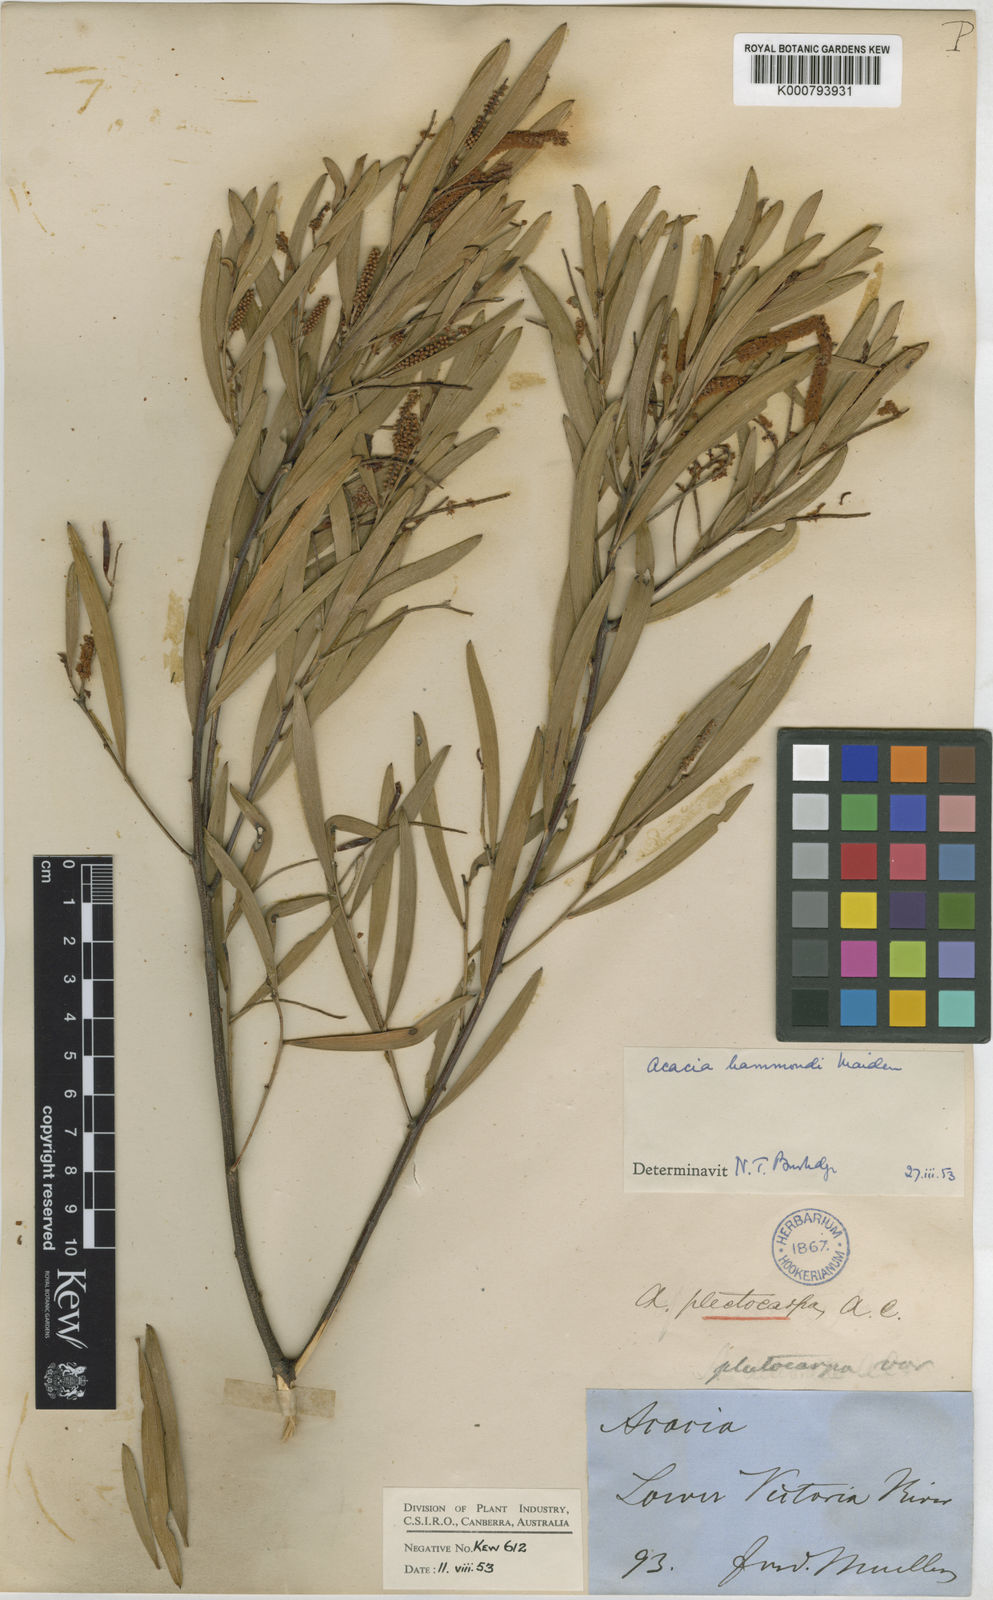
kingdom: Plantae
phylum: Tracheophyta
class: Magnoliopsida
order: Fabales
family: Fabaceae
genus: Acacia
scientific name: Acacia hammondii
